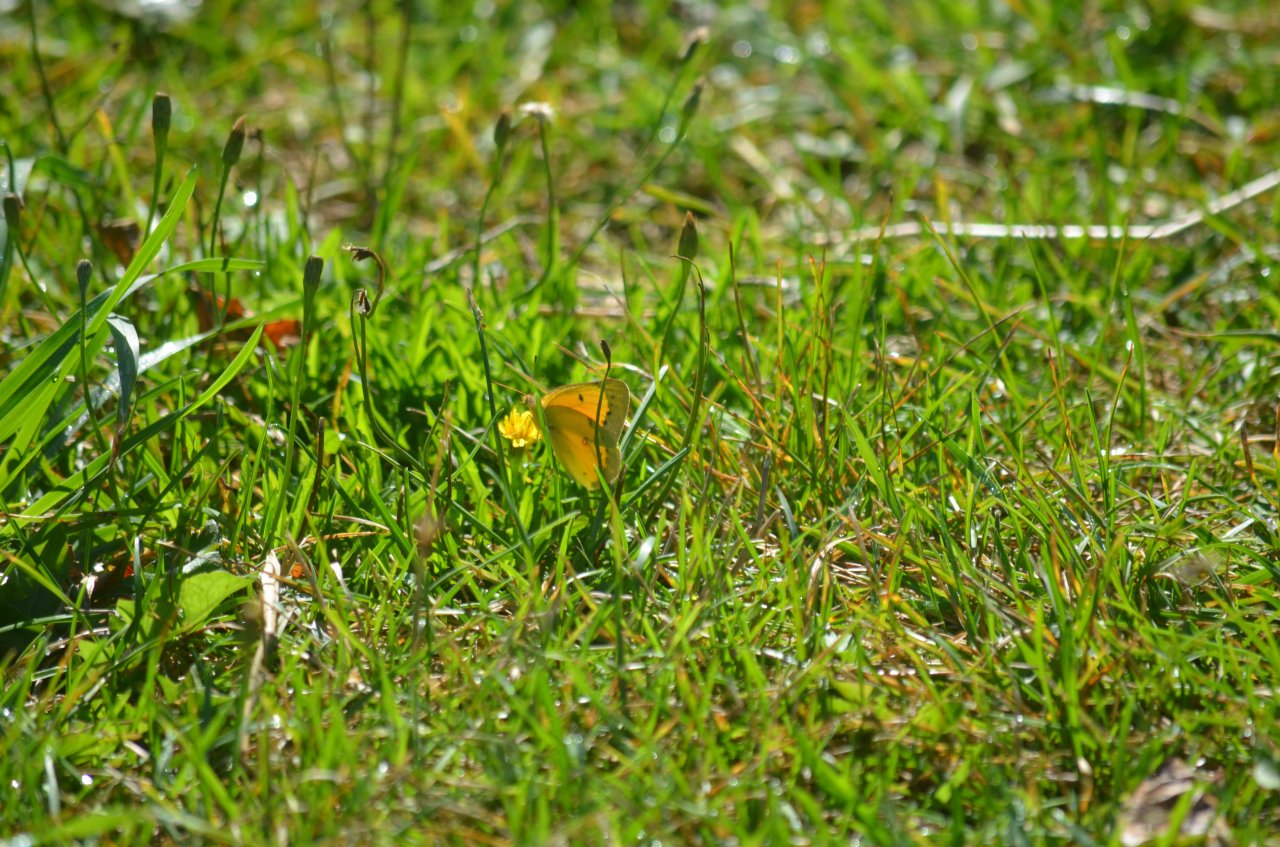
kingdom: Animalia
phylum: Arthropoda
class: Insecta
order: Lepidoptera
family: Pieridae
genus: Colias
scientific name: Colias eurytheme
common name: Orange Sulphur
